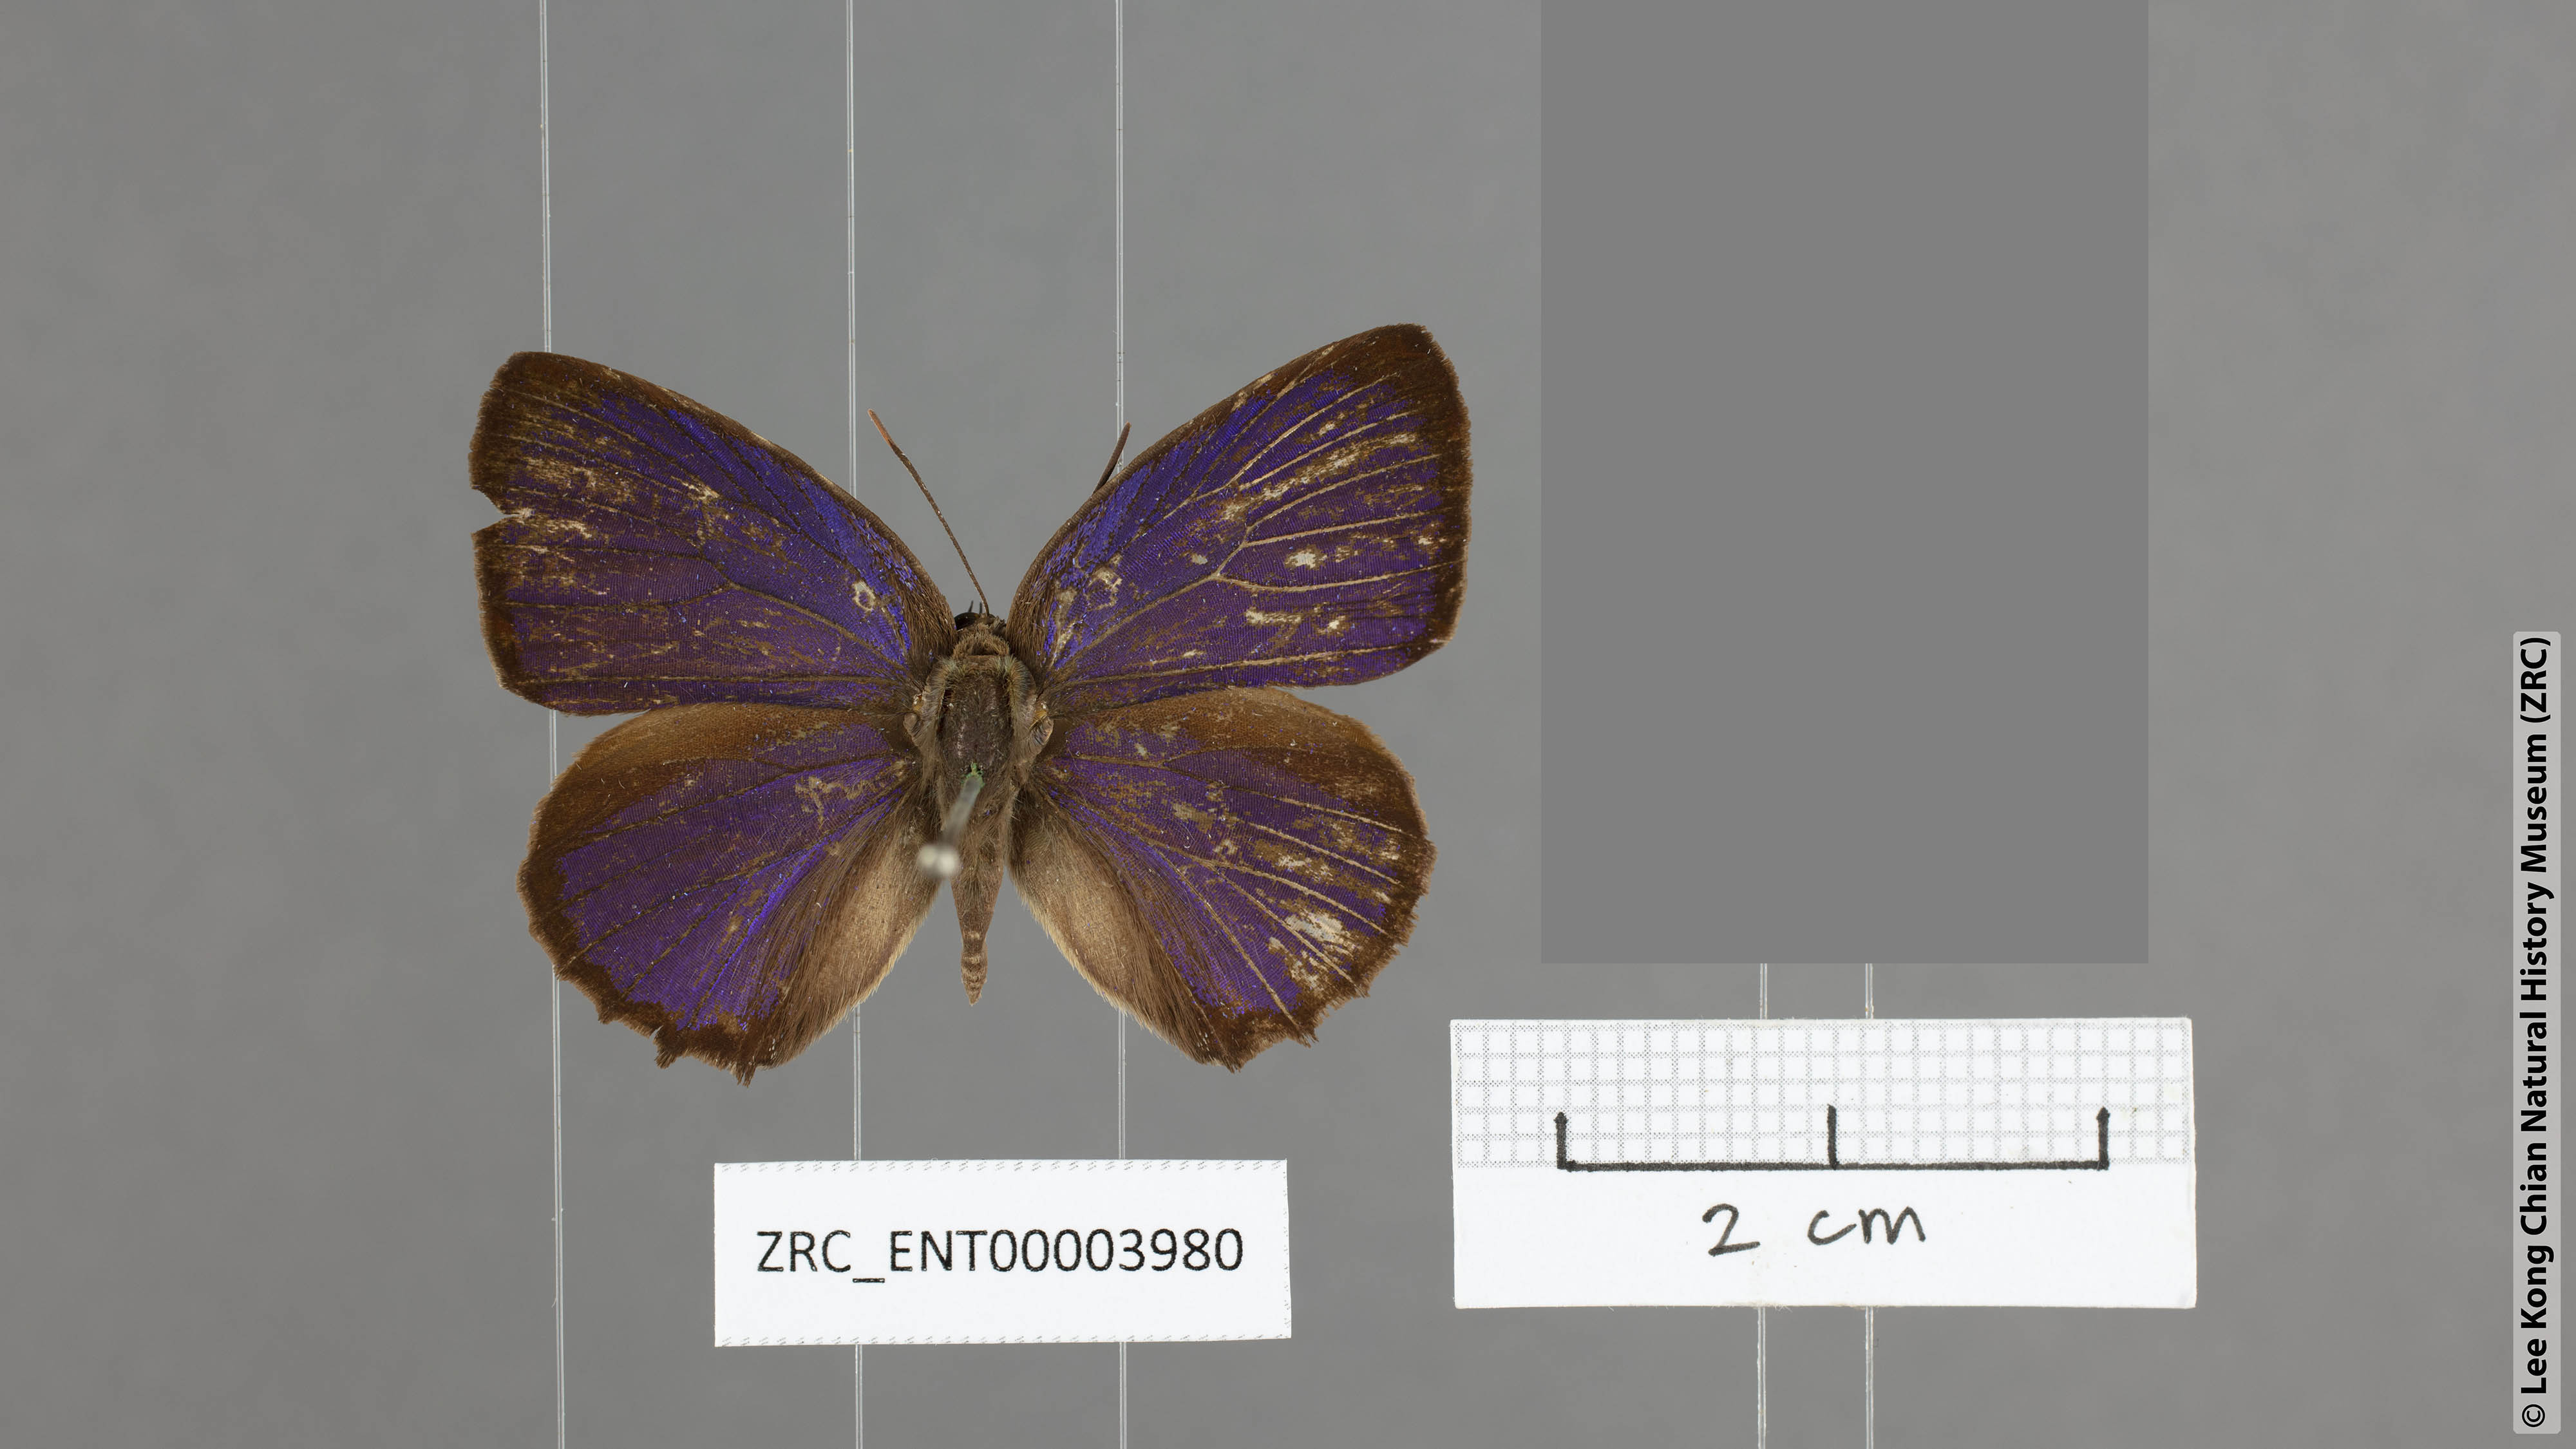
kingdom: Animalia
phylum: Arthropoda
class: Insecta
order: Lepidoptera
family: Lycaenidae
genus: Arhopala
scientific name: Arhopala labuana
